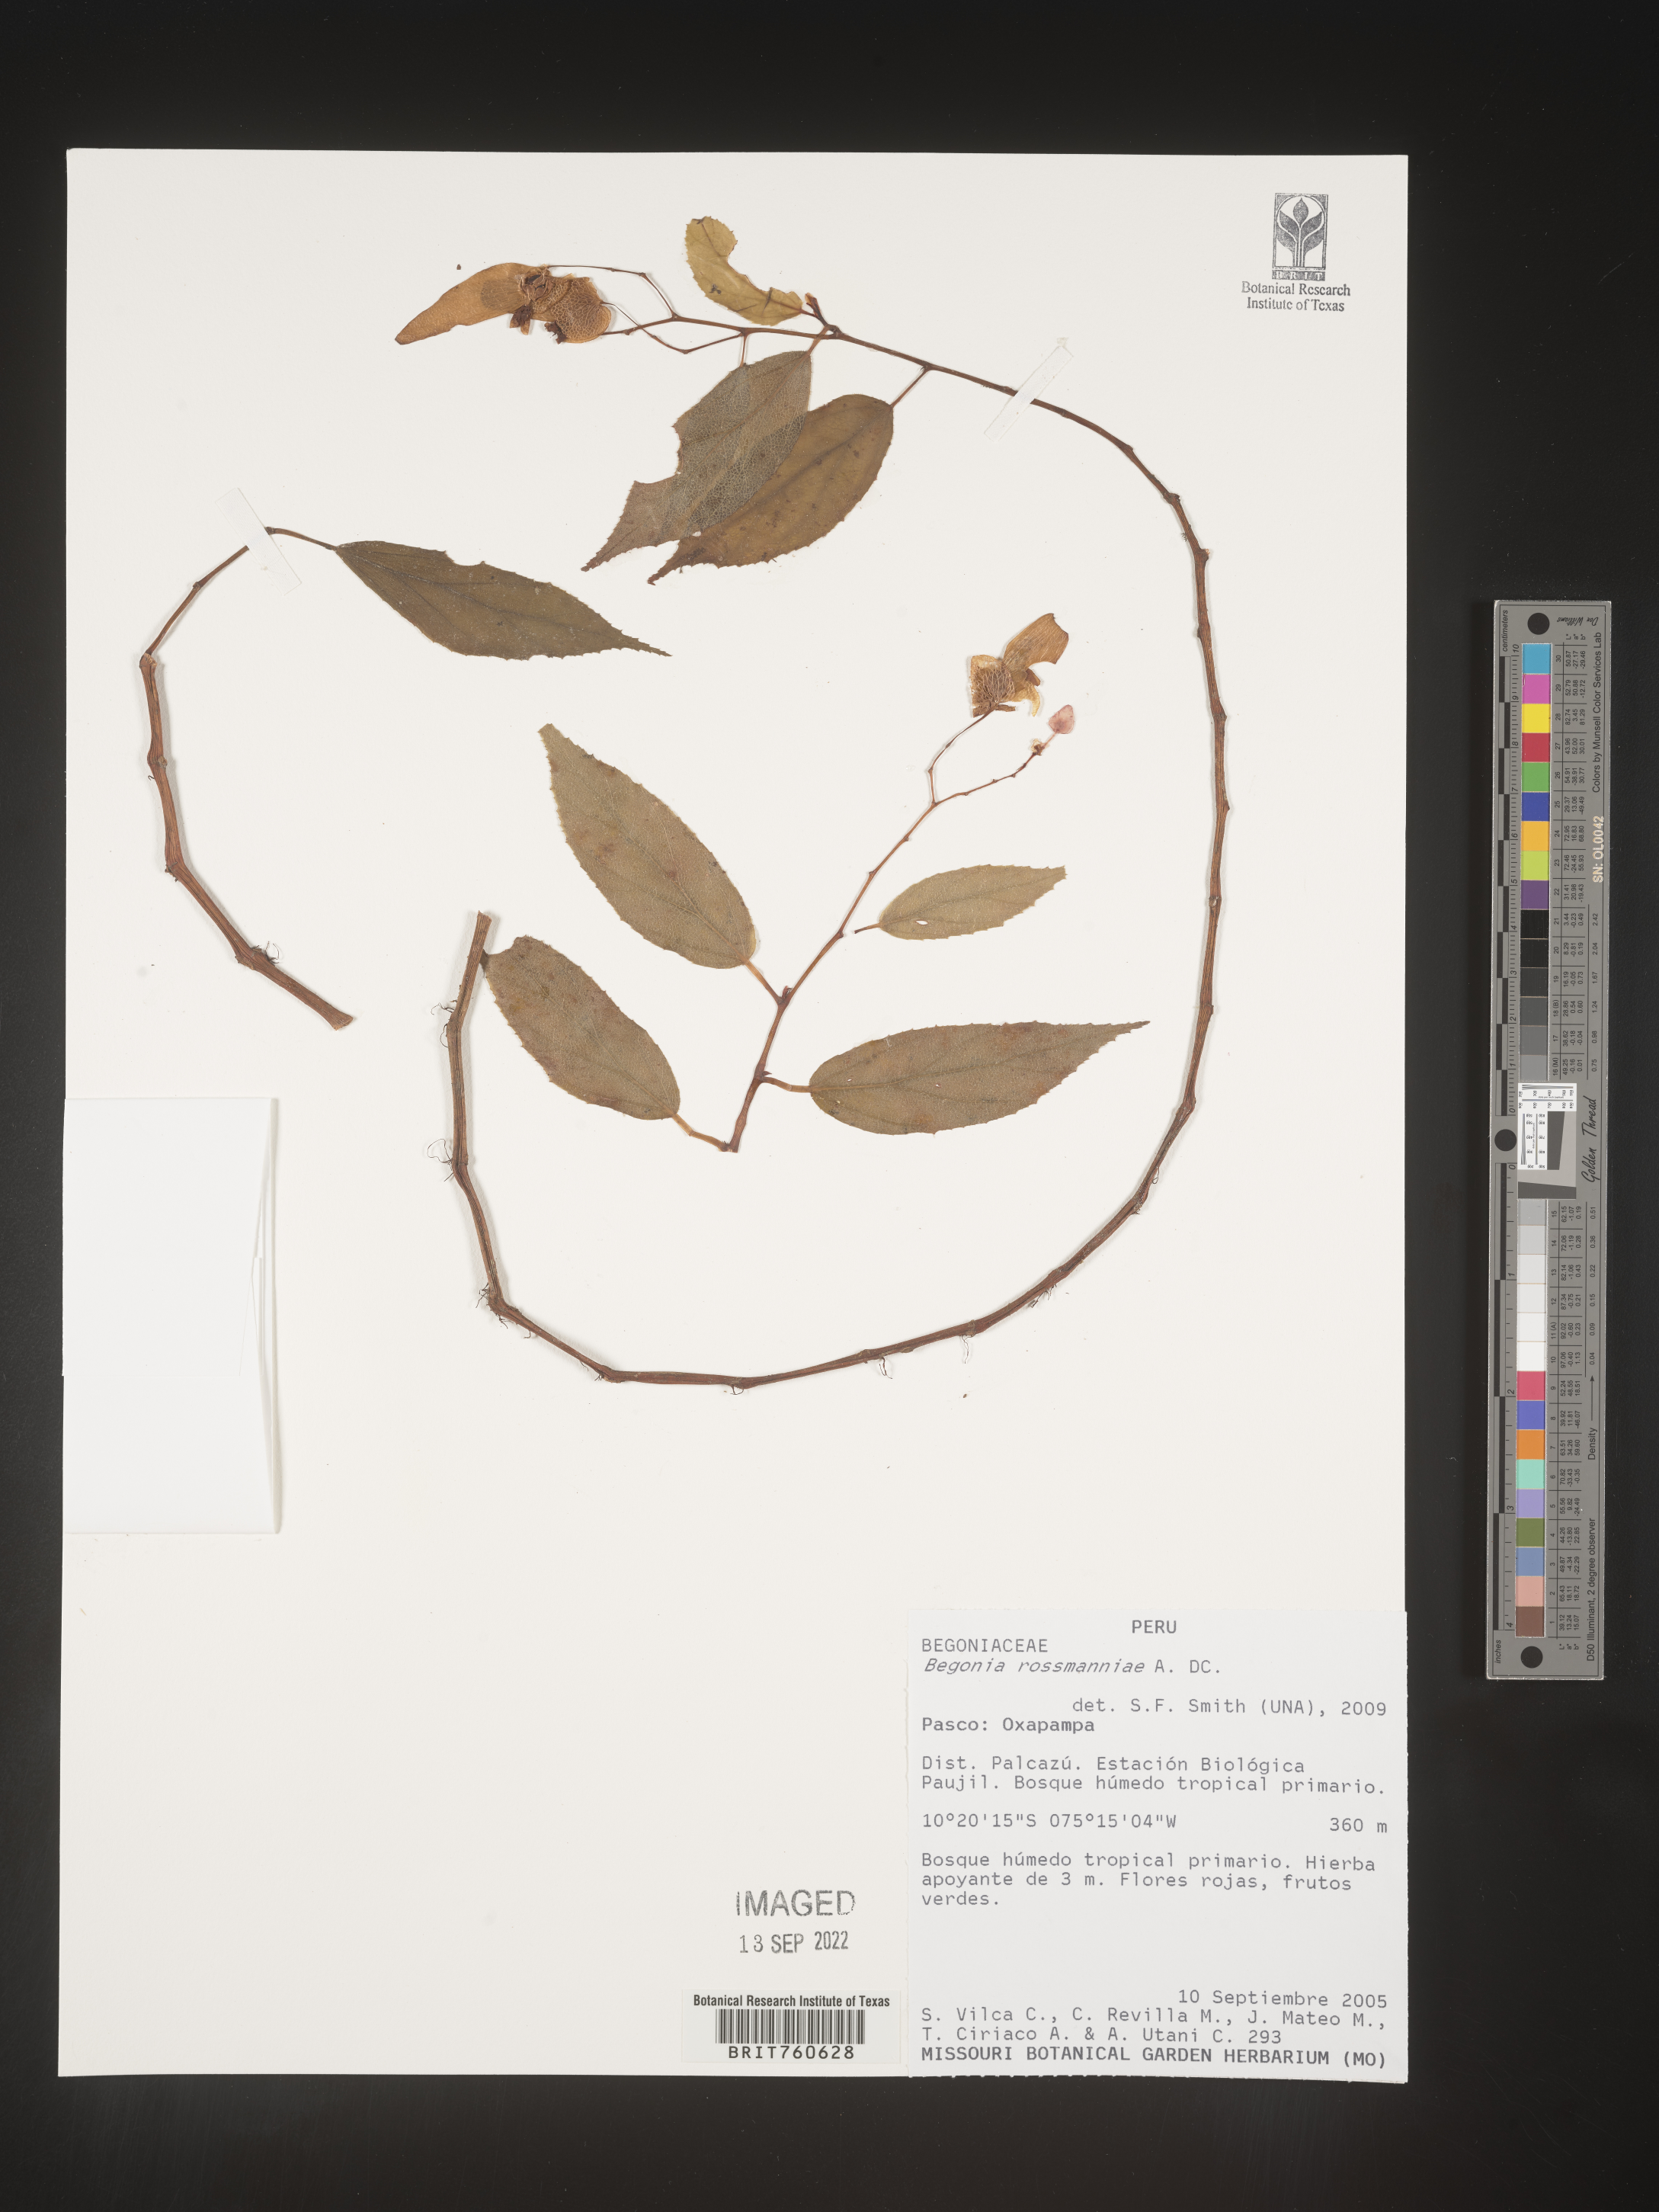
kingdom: Plantae
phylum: Tracheophyta
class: Magnoliopsida
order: Cucurbitales
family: Begoniaceae
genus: Begonia
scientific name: Begonia
